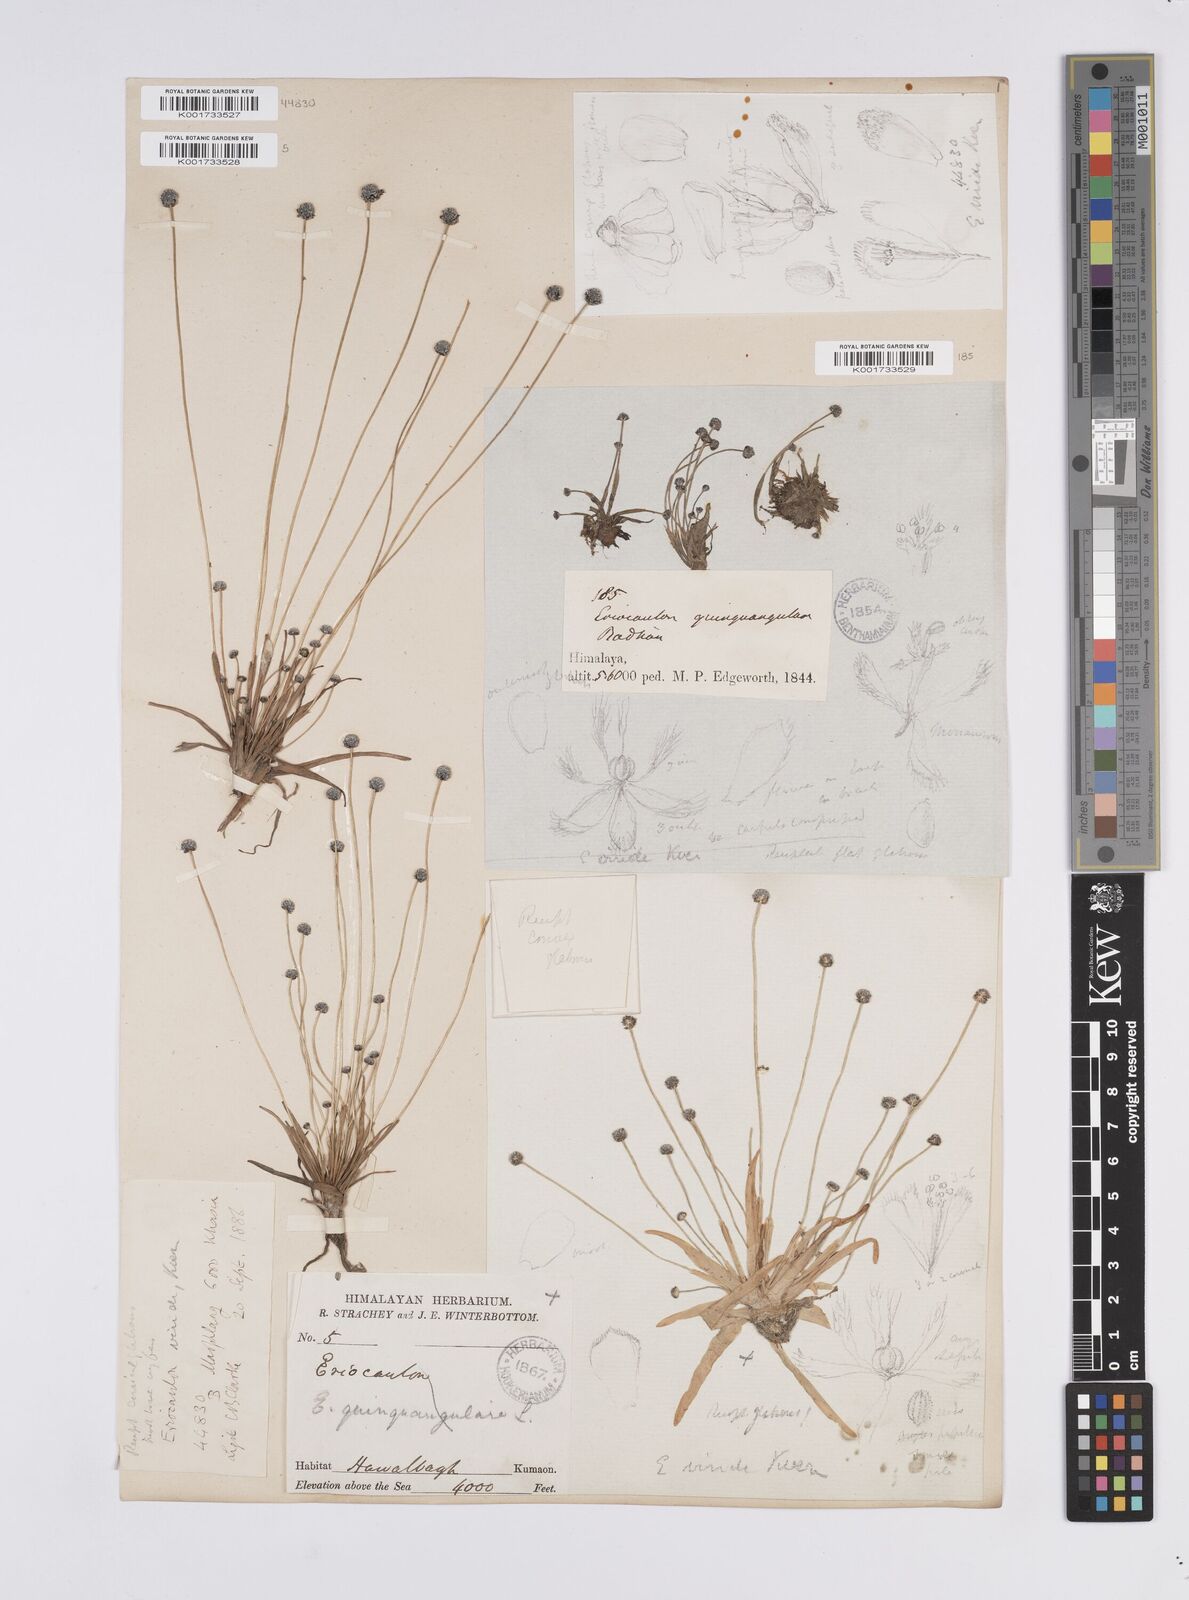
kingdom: Plantae
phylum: Tracheophyta
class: Liliopsida
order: Poales
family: Eriocaulaceae
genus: Eriocaulon
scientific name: Eriocaulon nepalense
